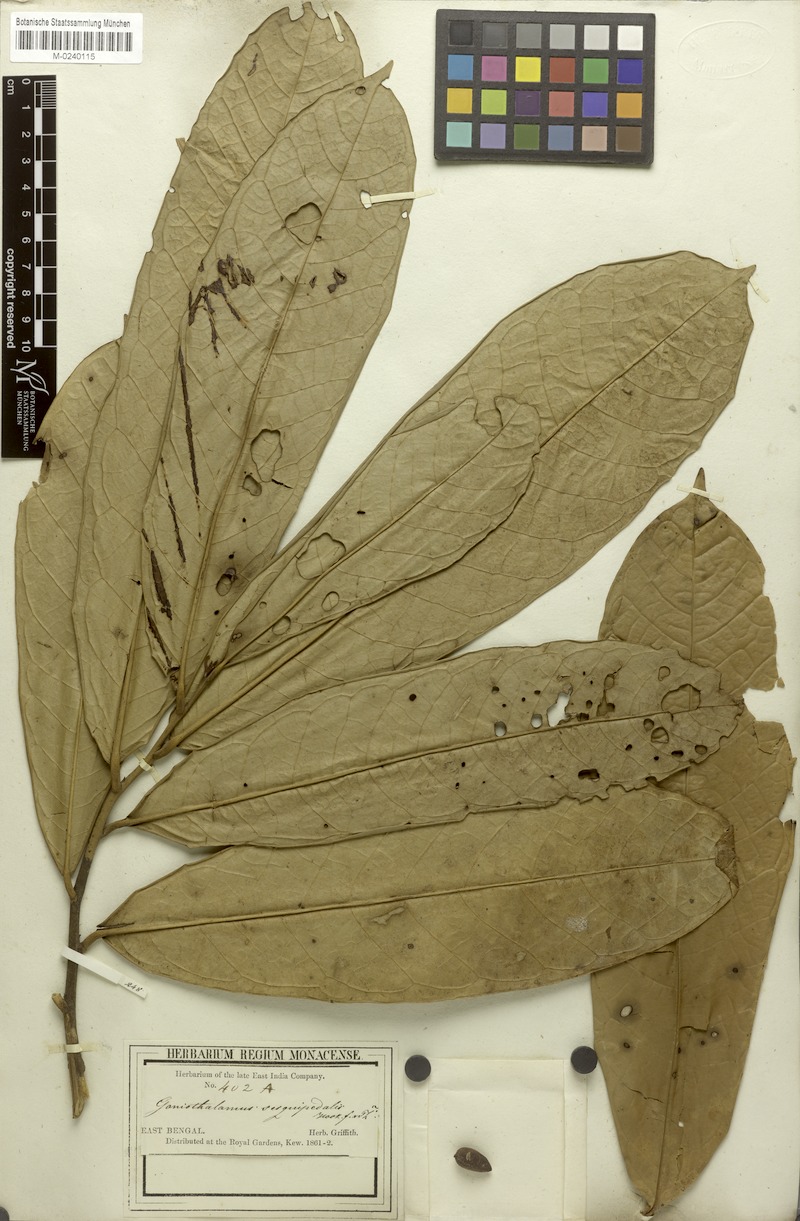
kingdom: Plantae
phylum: Tracheophyta
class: Magnoliopsida
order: Magnoliales
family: Annonaceae
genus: Goniothalamus
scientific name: Goniothalamus sesquipedalis
